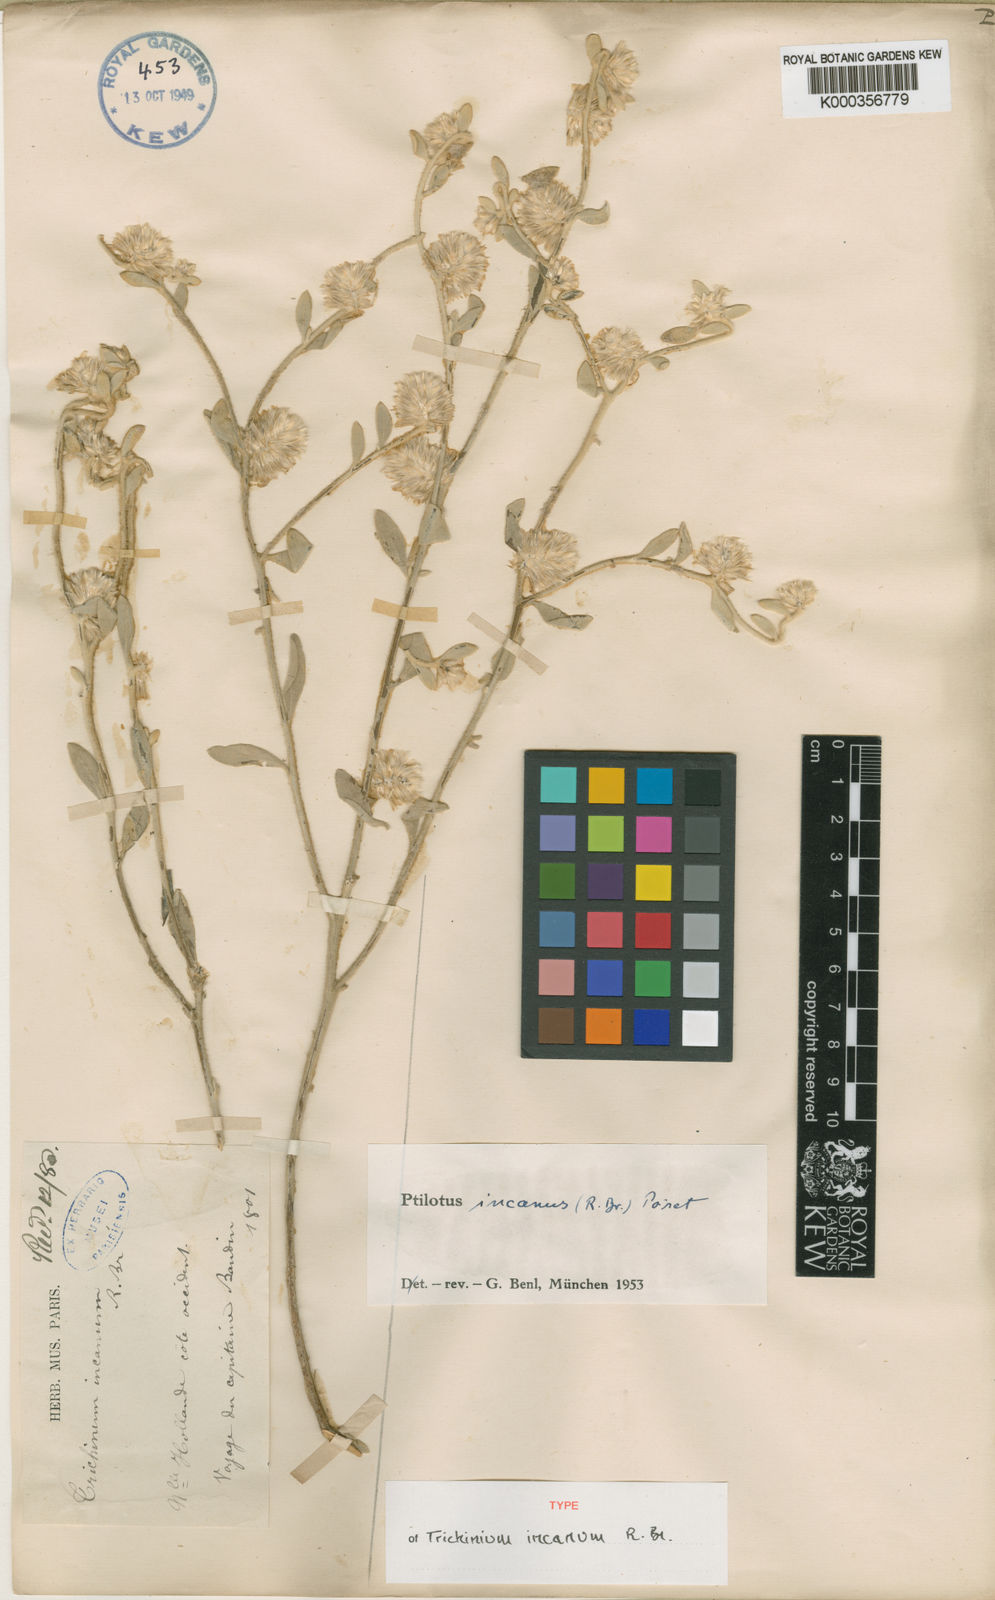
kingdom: Plantae
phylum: Tracheophyta
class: Magnoliopsida
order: Caryophyllales
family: Amaranthaceae
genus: Ptilotus
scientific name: Ptilotus incanus
